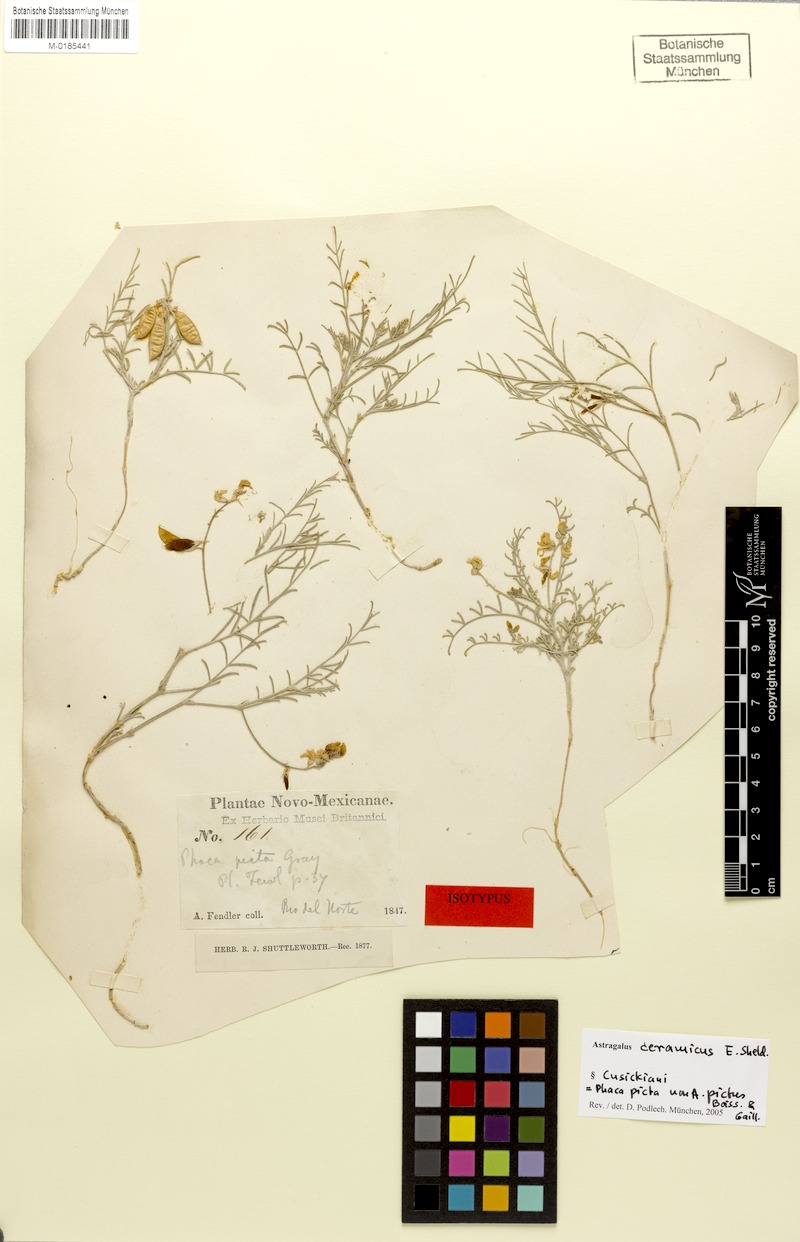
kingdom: Plantae
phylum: Tracheophyta
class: Magnoliopsida
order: Fabales
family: Fabaceae
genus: Astragalus
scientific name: Astragalus ceramicus
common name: Painted milk-vetch
